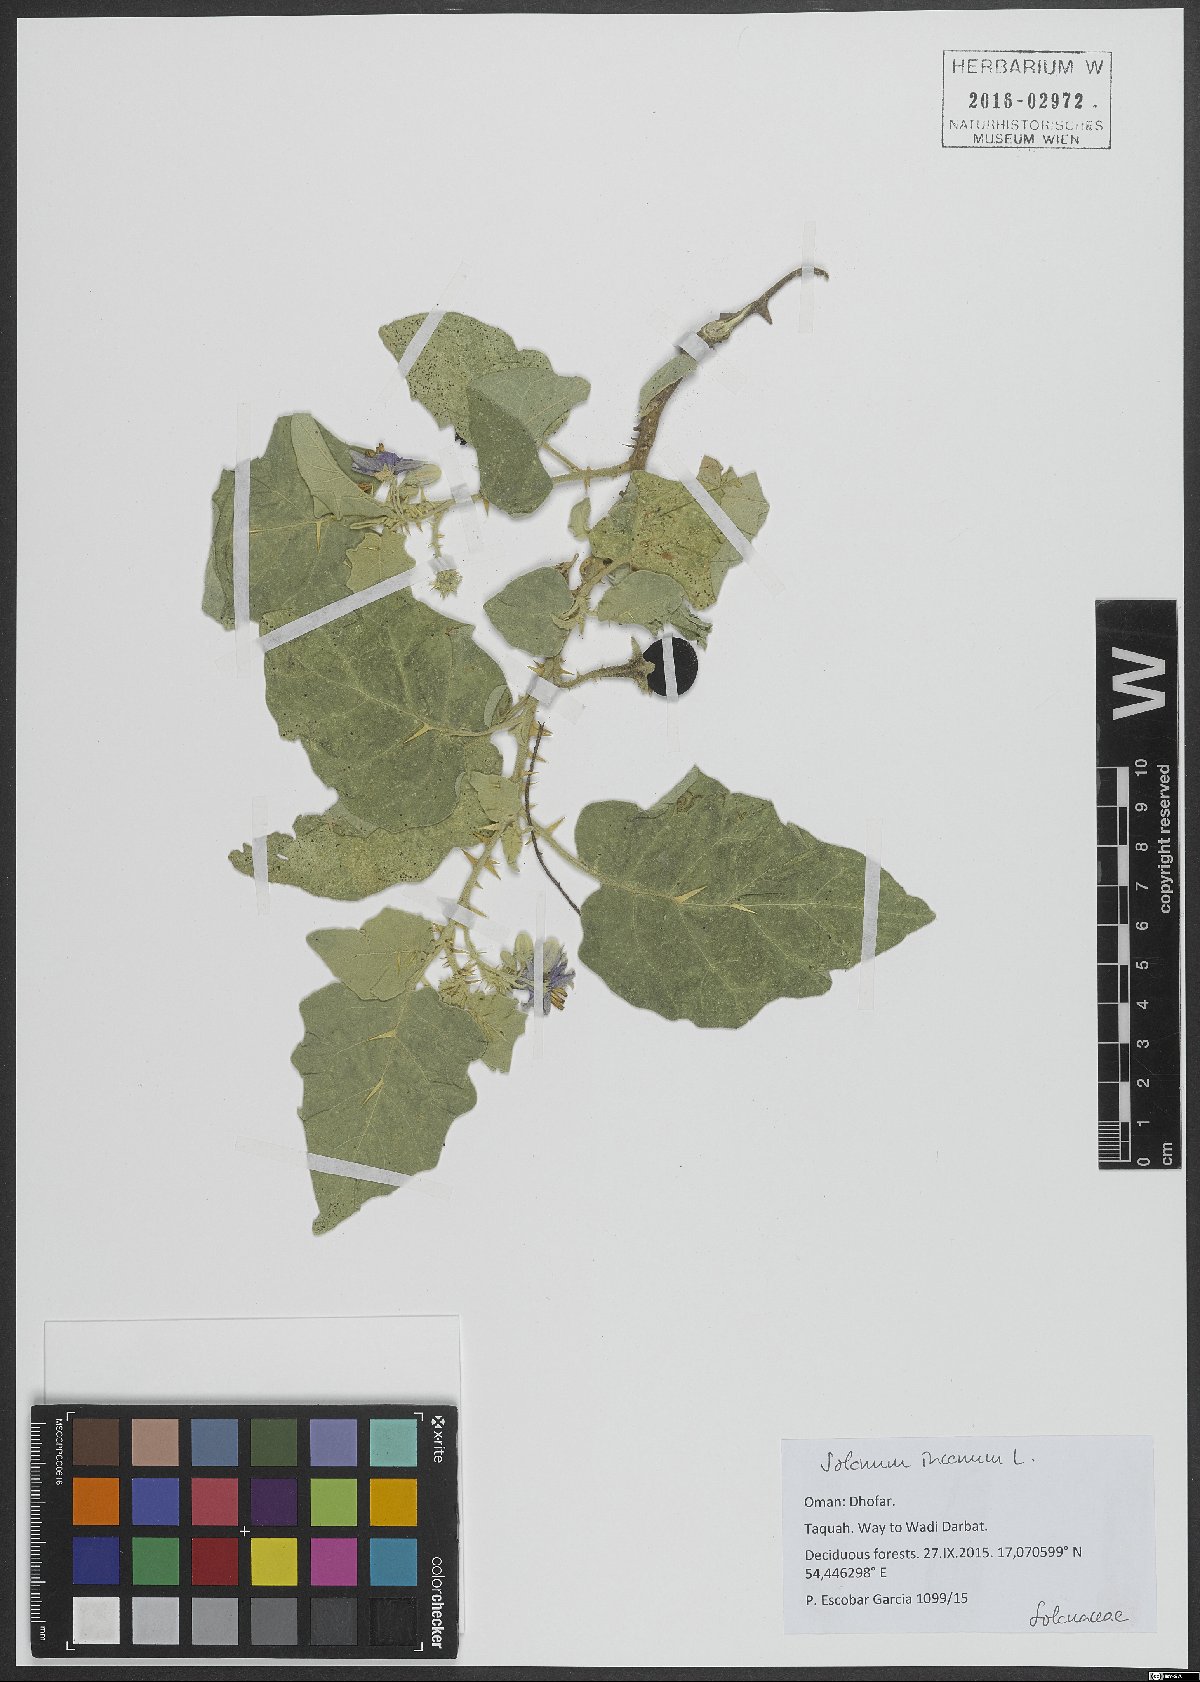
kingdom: Plantae
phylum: Tracheophyta
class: Magnoliopsida
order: Solanales
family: Solanaceae
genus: Solanum
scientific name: Solanum incanum
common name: Bitter apple
